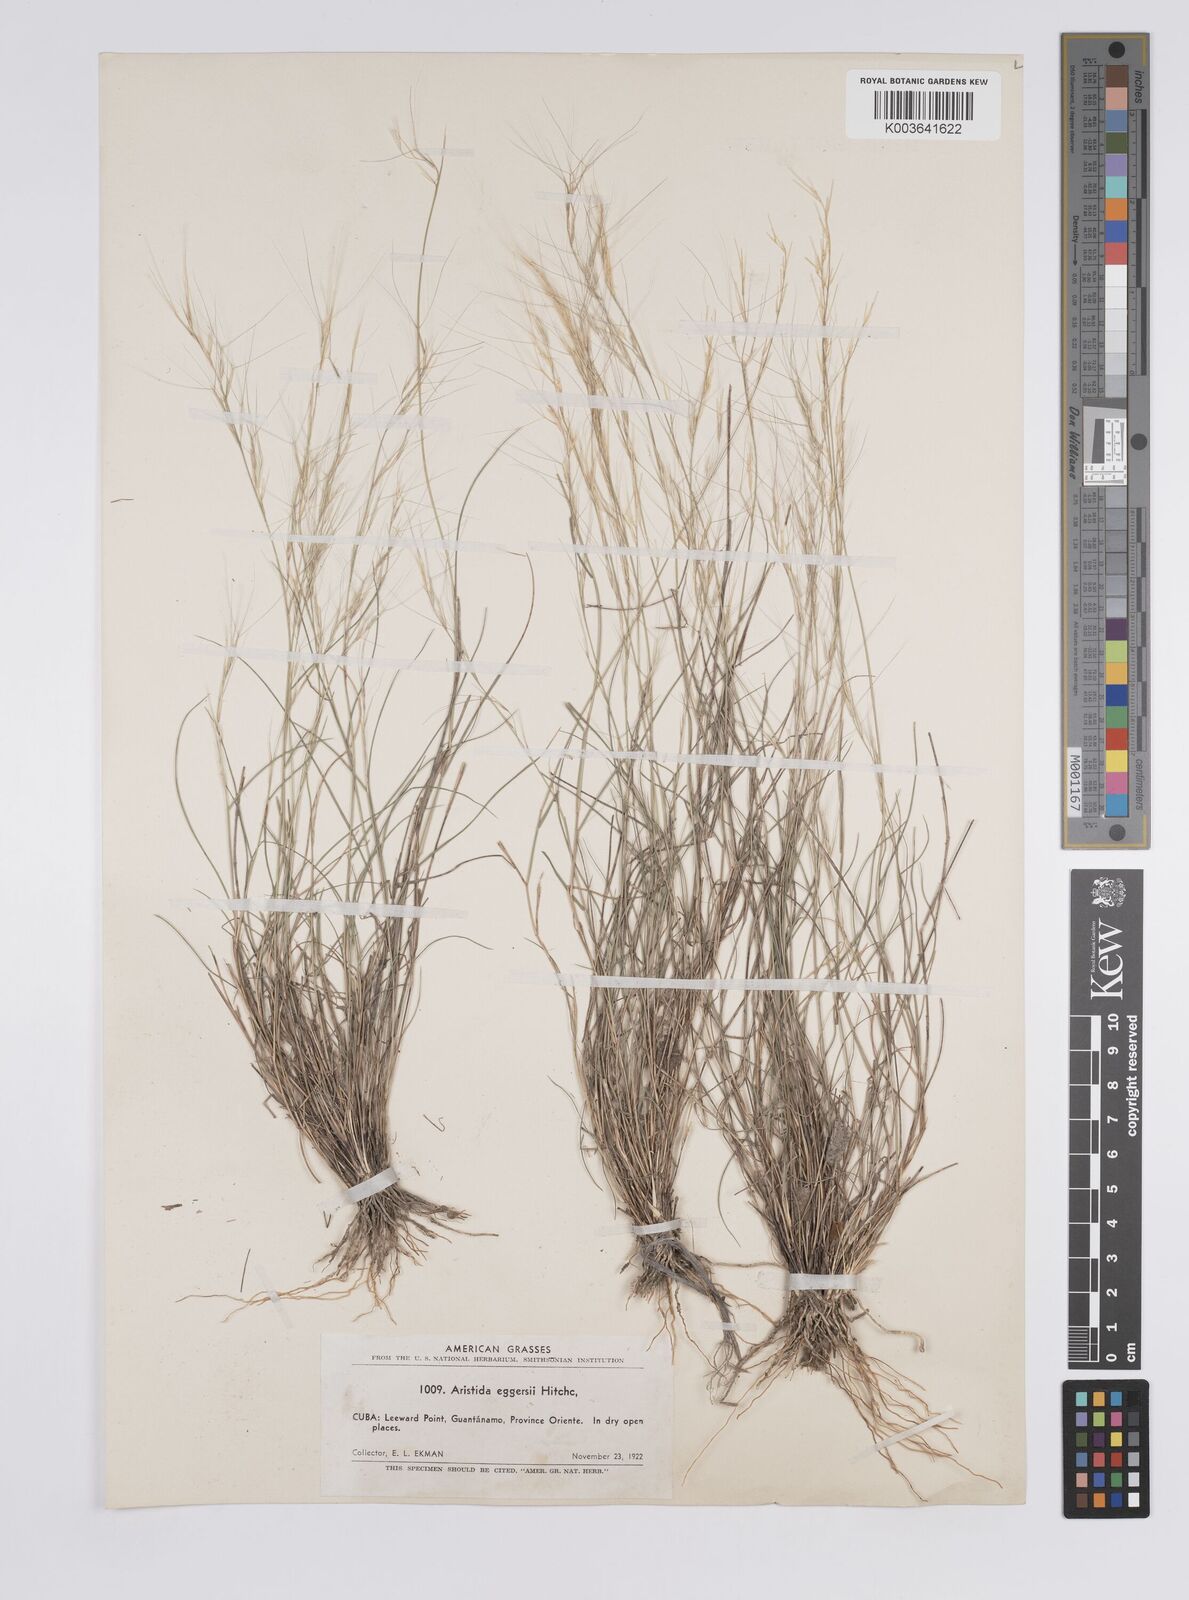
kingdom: Plantae
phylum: Tracheophyta
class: Liliopsida
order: Poales
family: Poaceae
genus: Aristida
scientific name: Aristida purpurea
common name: Purple threeawn
